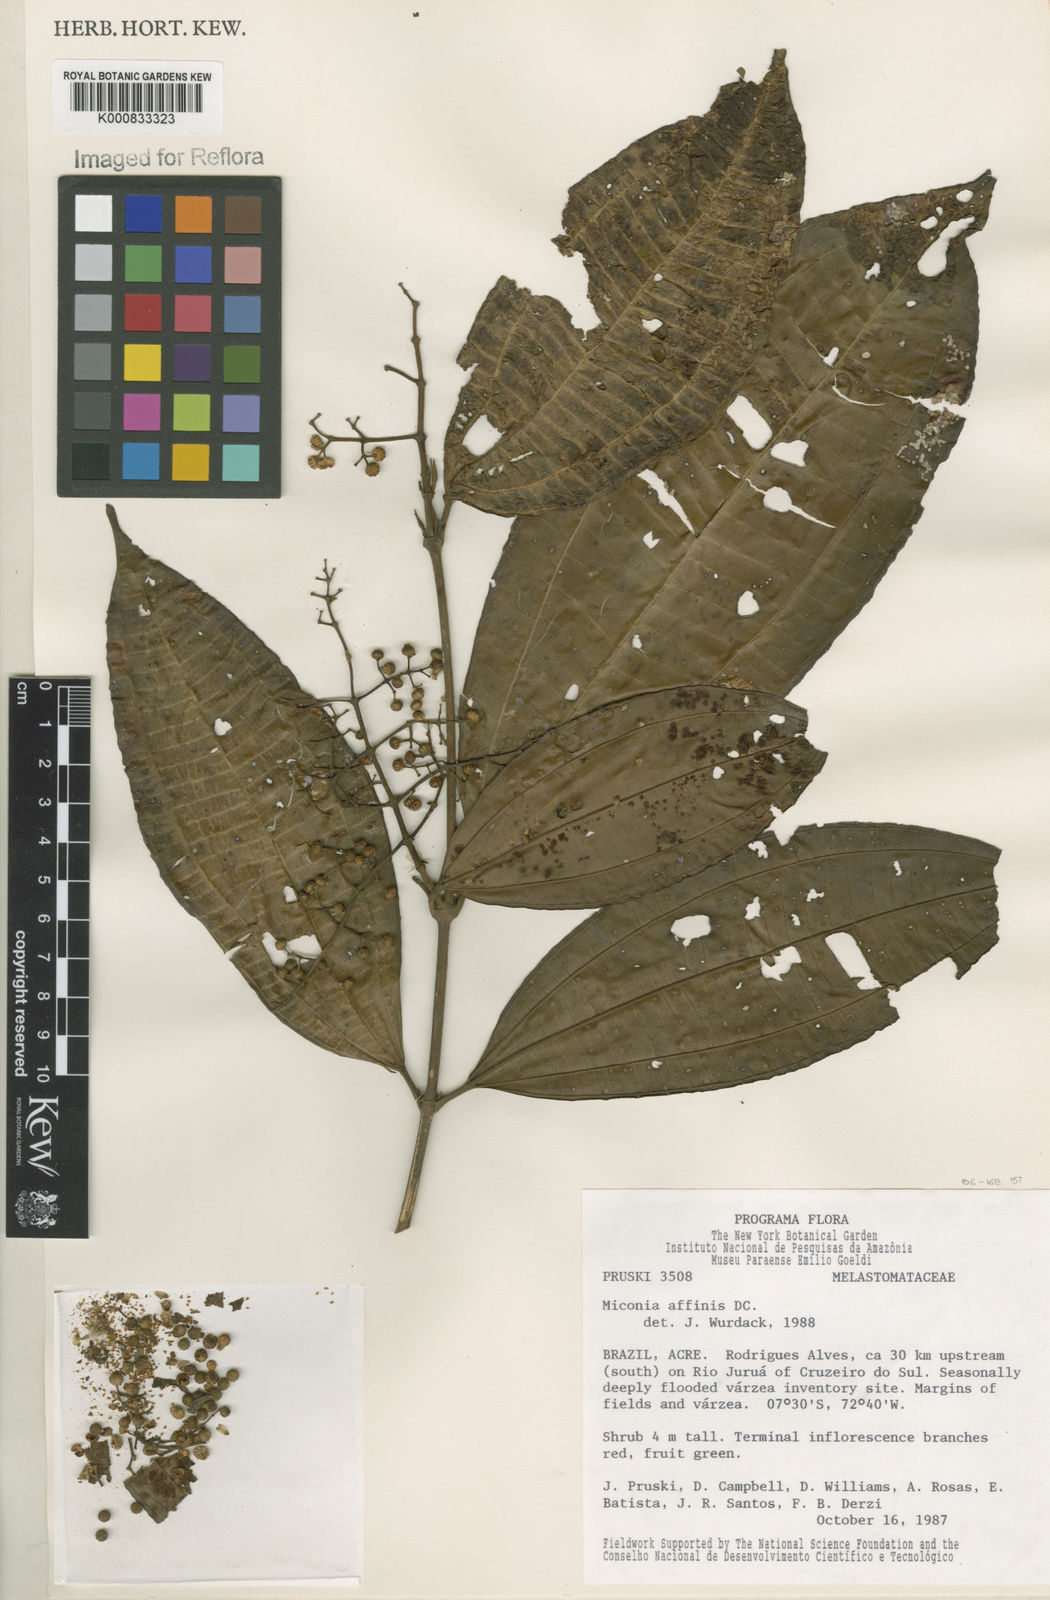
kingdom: Plantae
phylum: Tracheophyta
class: Magnoliopsida
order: Myrtales
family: Melastomataceae
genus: Miconia
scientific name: Miconia affinis
